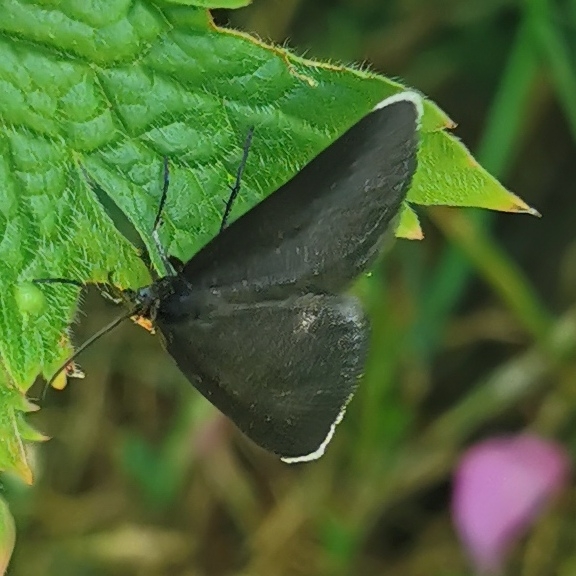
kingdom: Animalia
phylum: Arthropoda
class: Insecta
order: Lepidoptera
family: Geometridae
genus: Odezia
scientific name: Odezia atrata
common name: Sort måler
